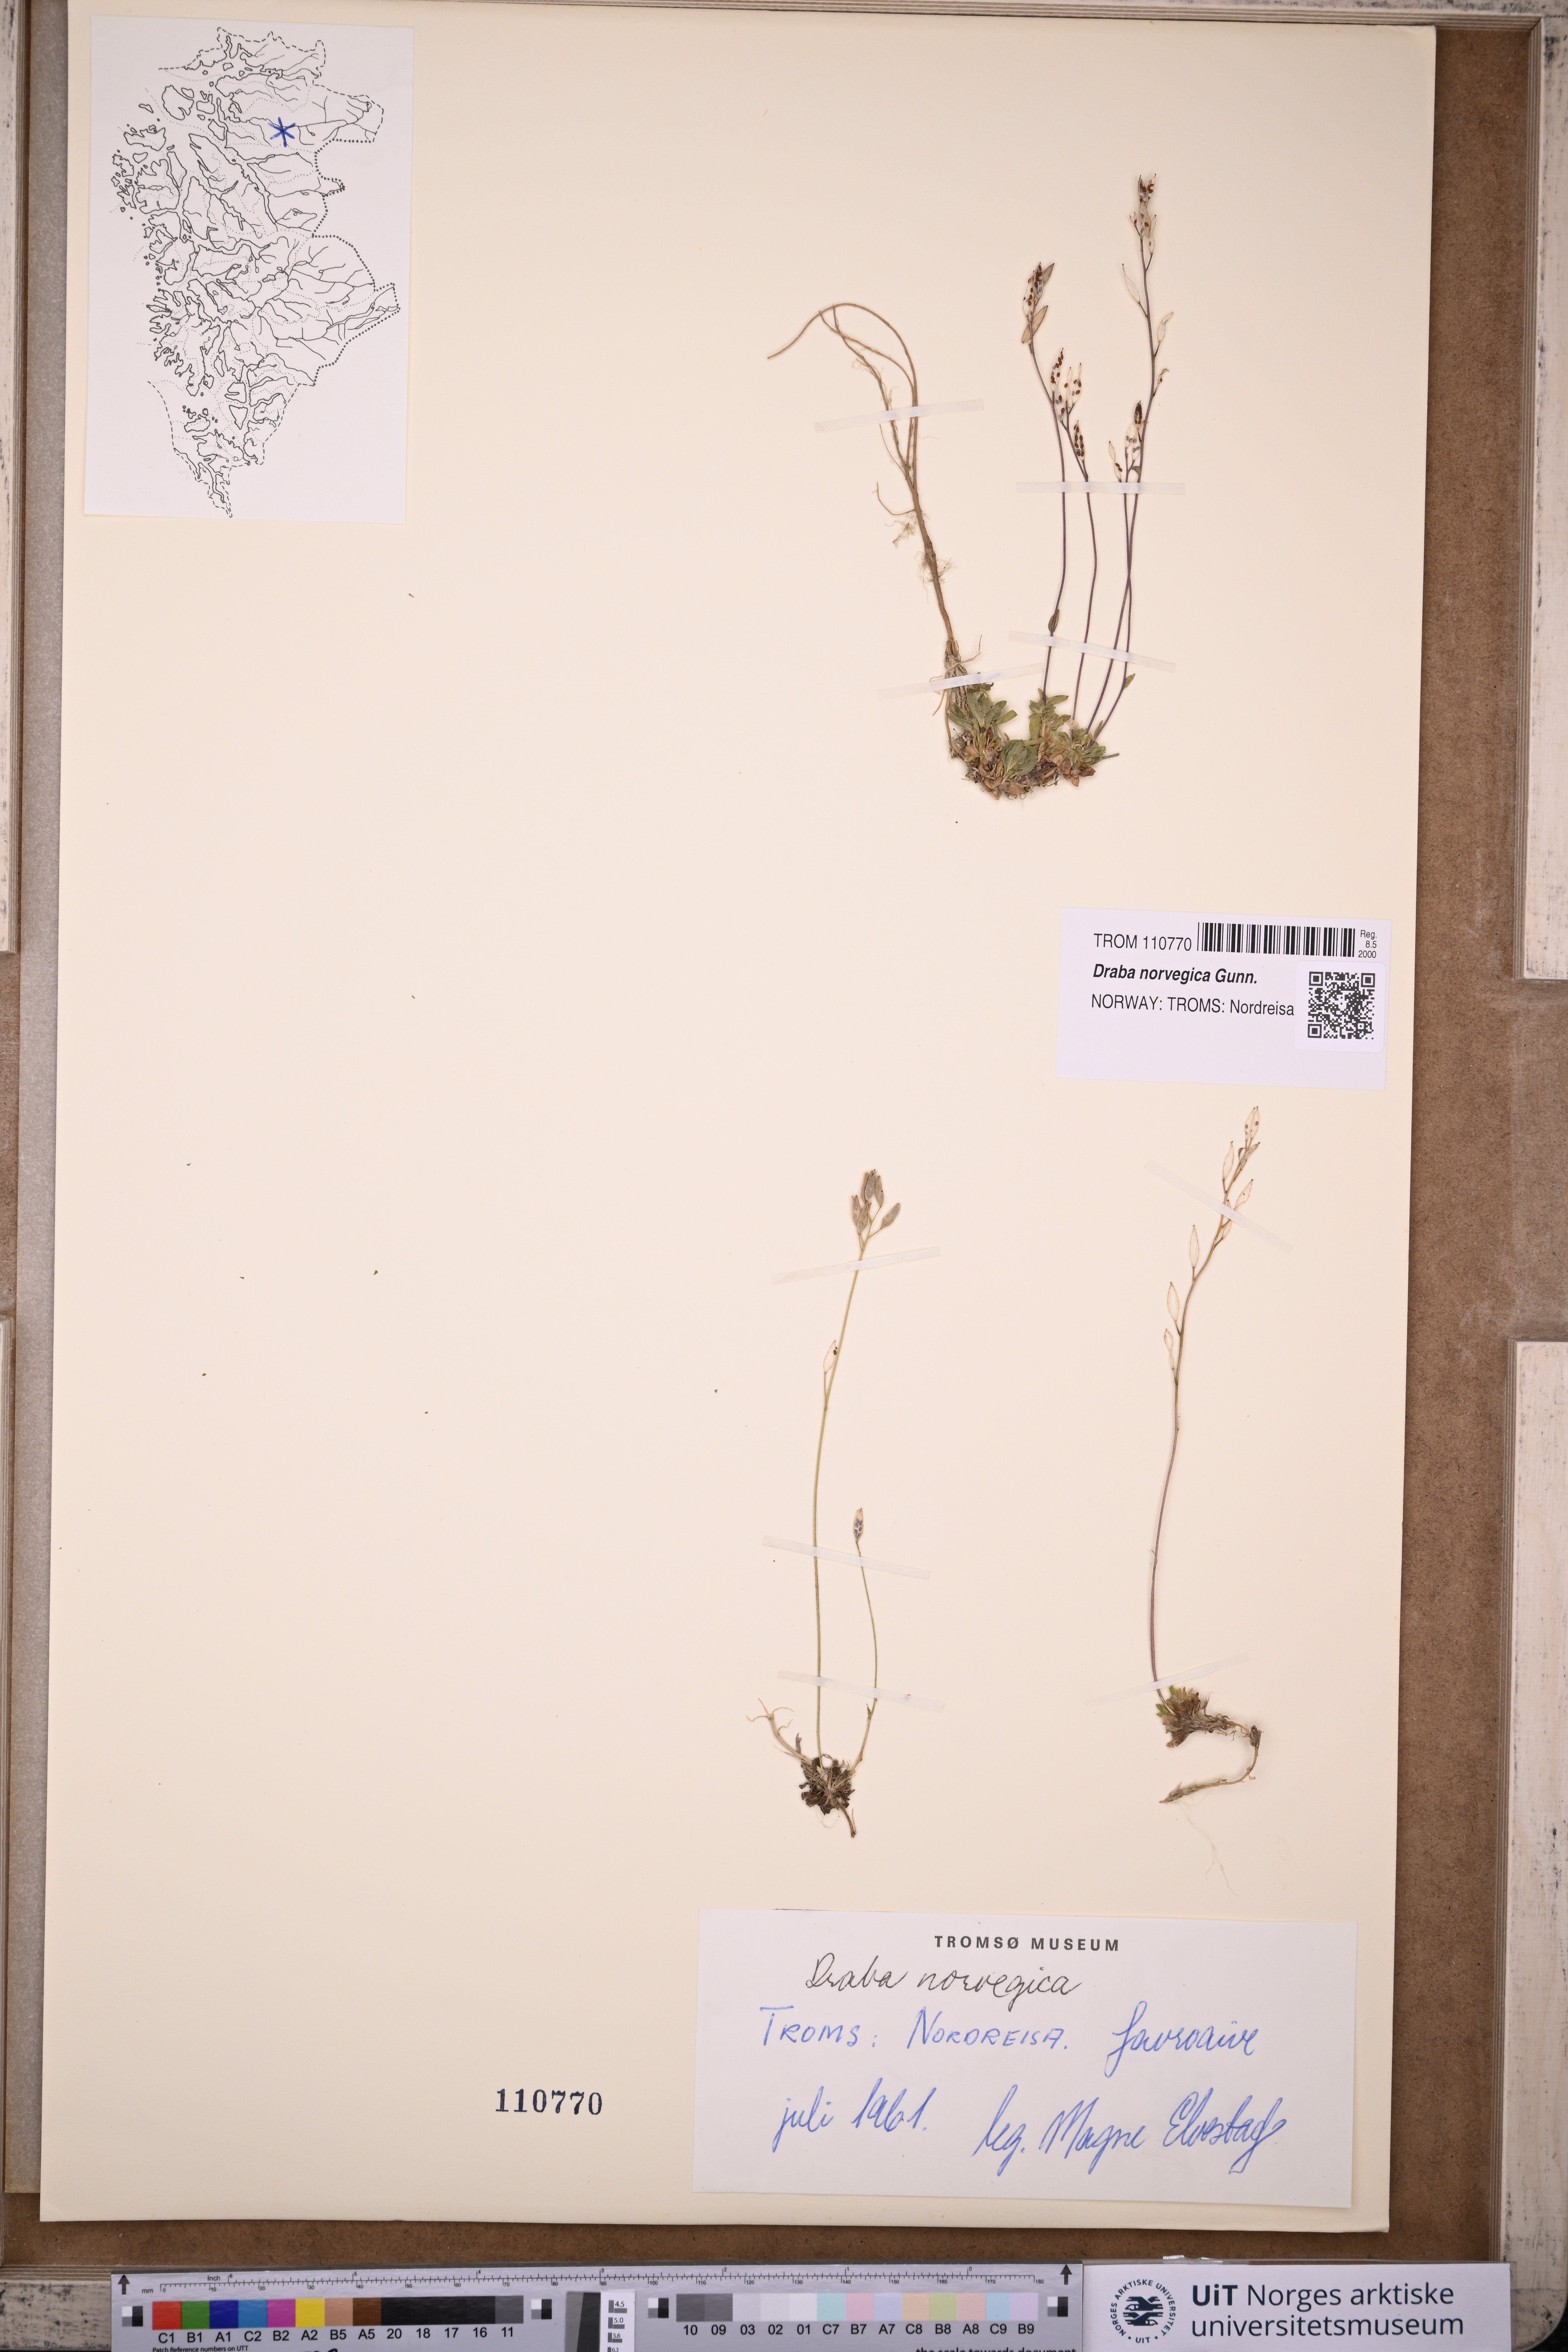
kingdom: Plantae
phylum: Tracheophyta
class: Magnoliopsida
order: Brassicales
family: Brassicaceae
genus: Draba
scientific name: Draba norvegica
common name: Rock whitlowgrass
